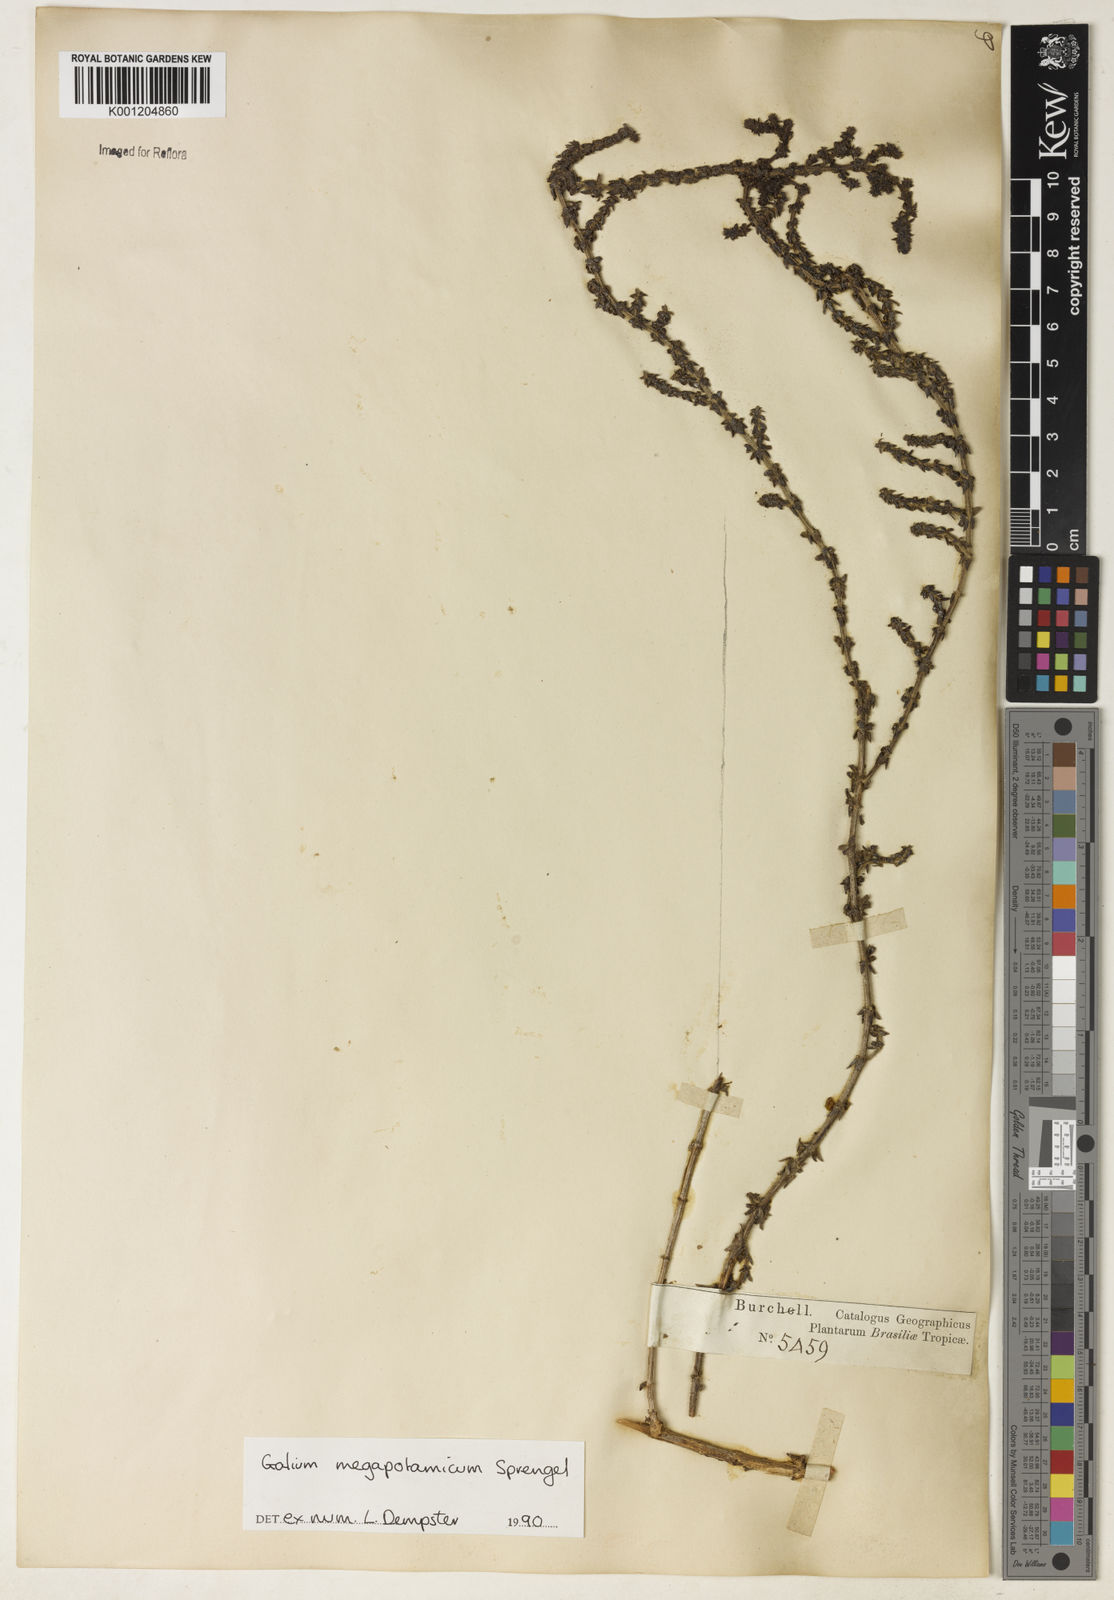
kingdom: Plantae
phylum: Tracheophyta
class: Magnoliopsida
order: Gentianales
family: Rubiaceae
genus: Galium
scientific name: Galium megapotamicum
